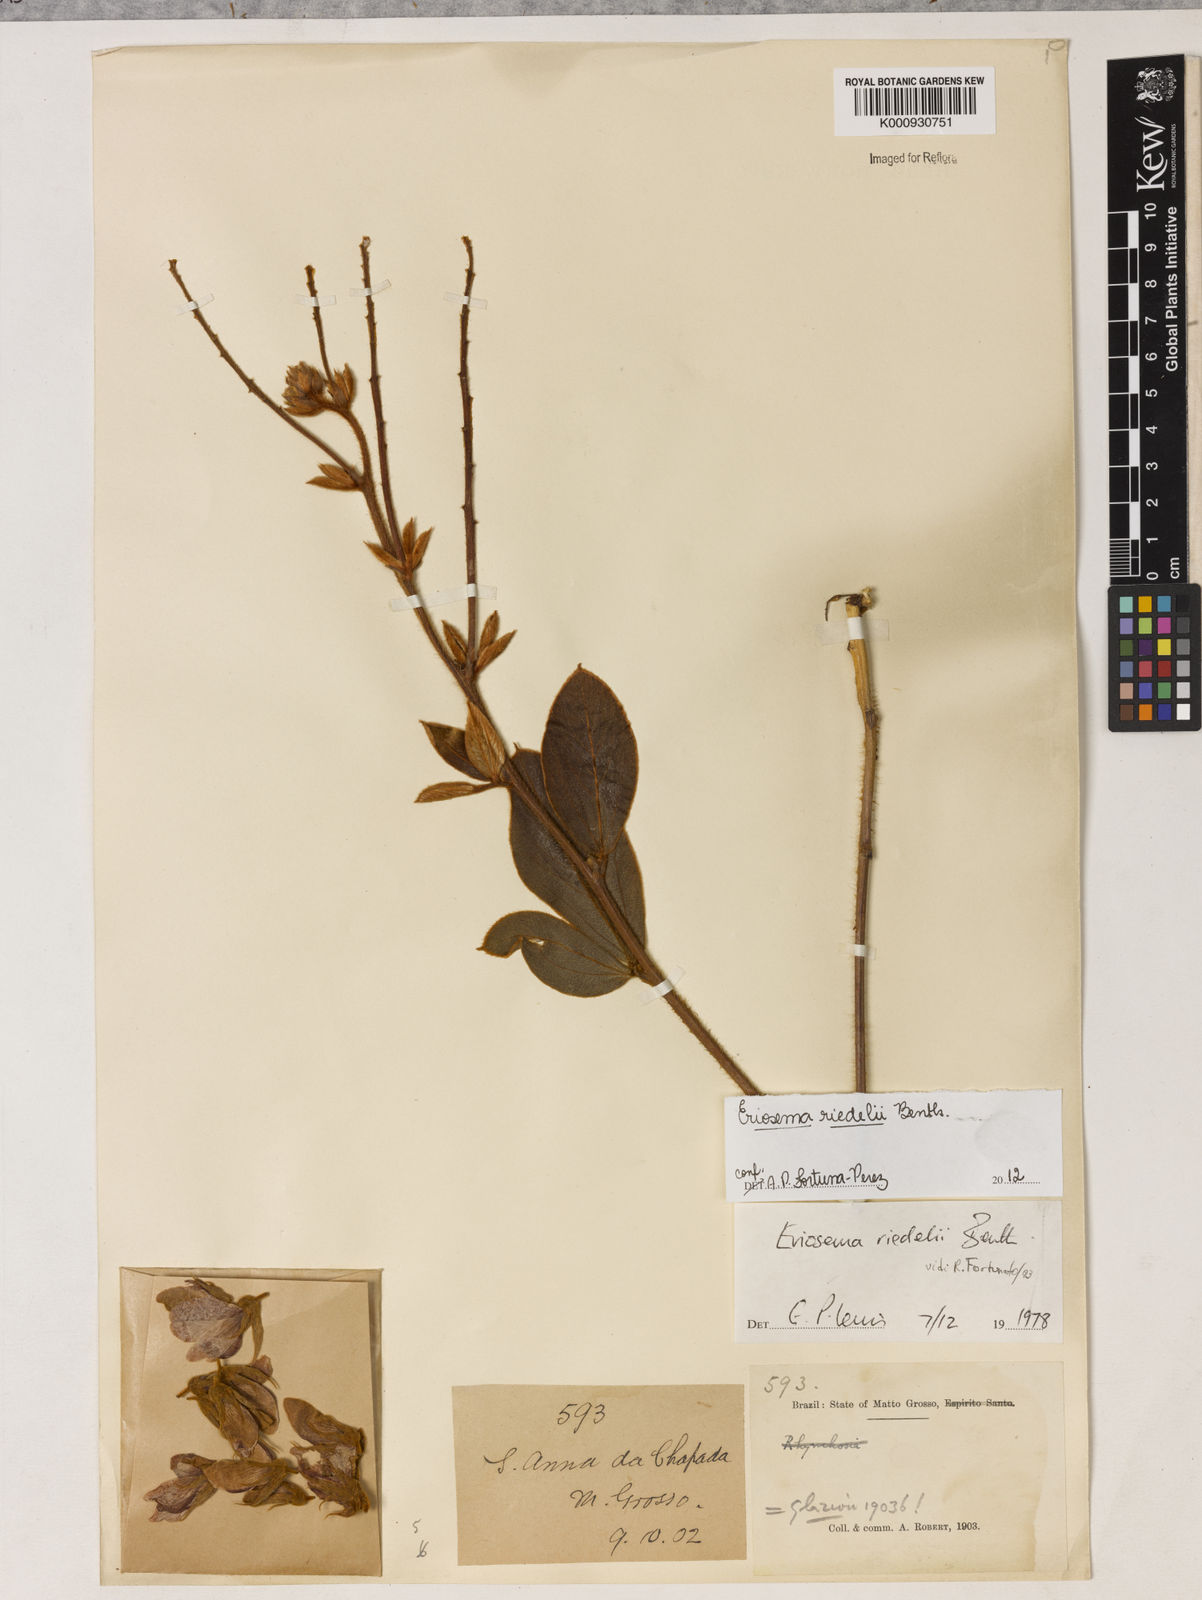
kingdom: Plantae
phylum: Tracheophyta
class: Magnoliopsida
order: Fabales
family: Fabaceae
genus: Eriosema
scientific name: Eriosema riedelii
